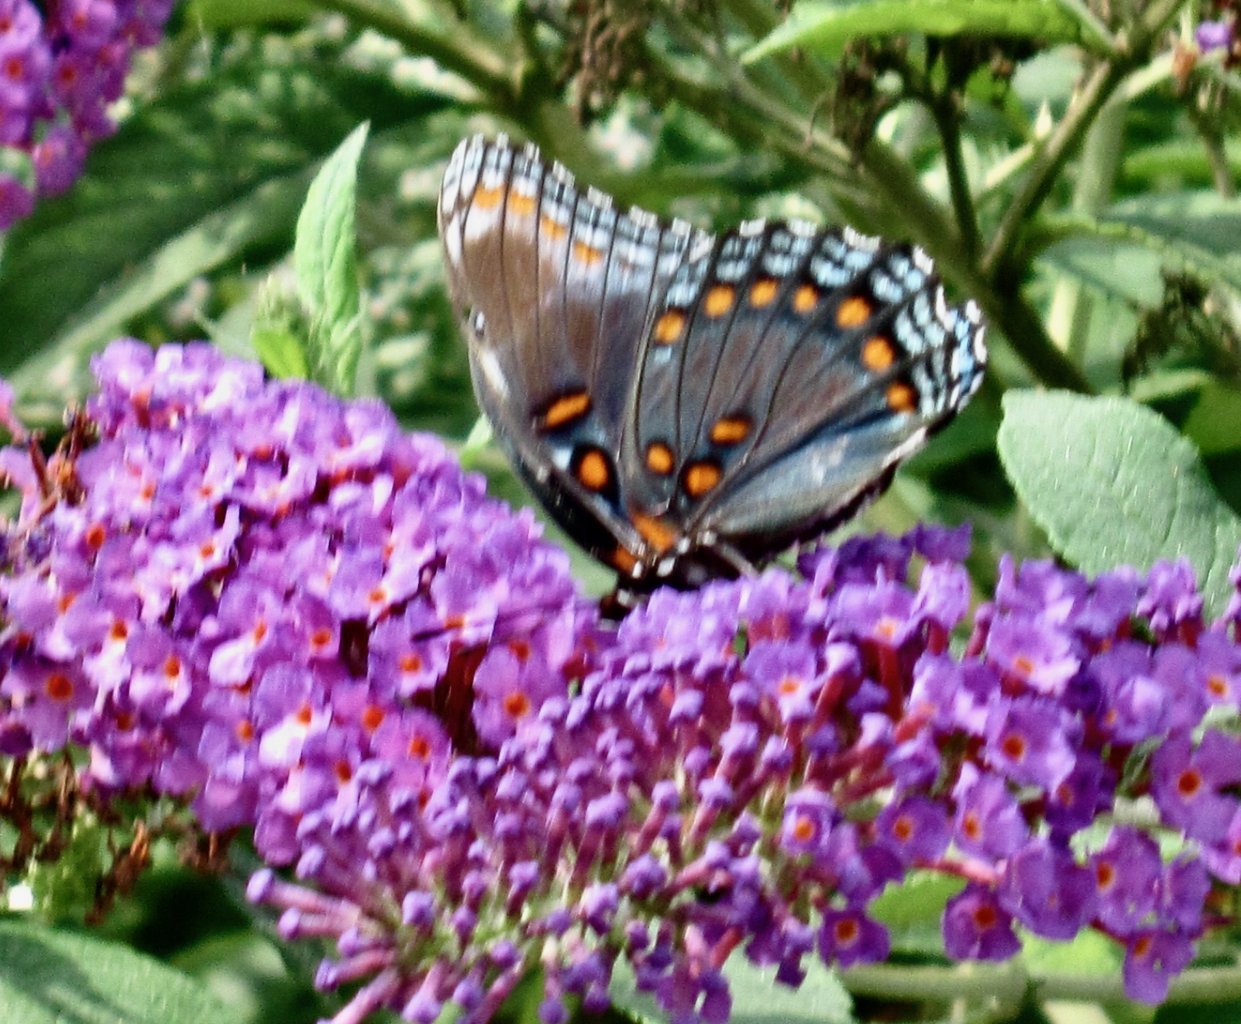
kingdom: Animalia
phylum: Arthropoda
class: Insecta
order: Lepidoptera
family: Nymphalidae
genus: Limenitis
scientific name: Limenitis astyanax
